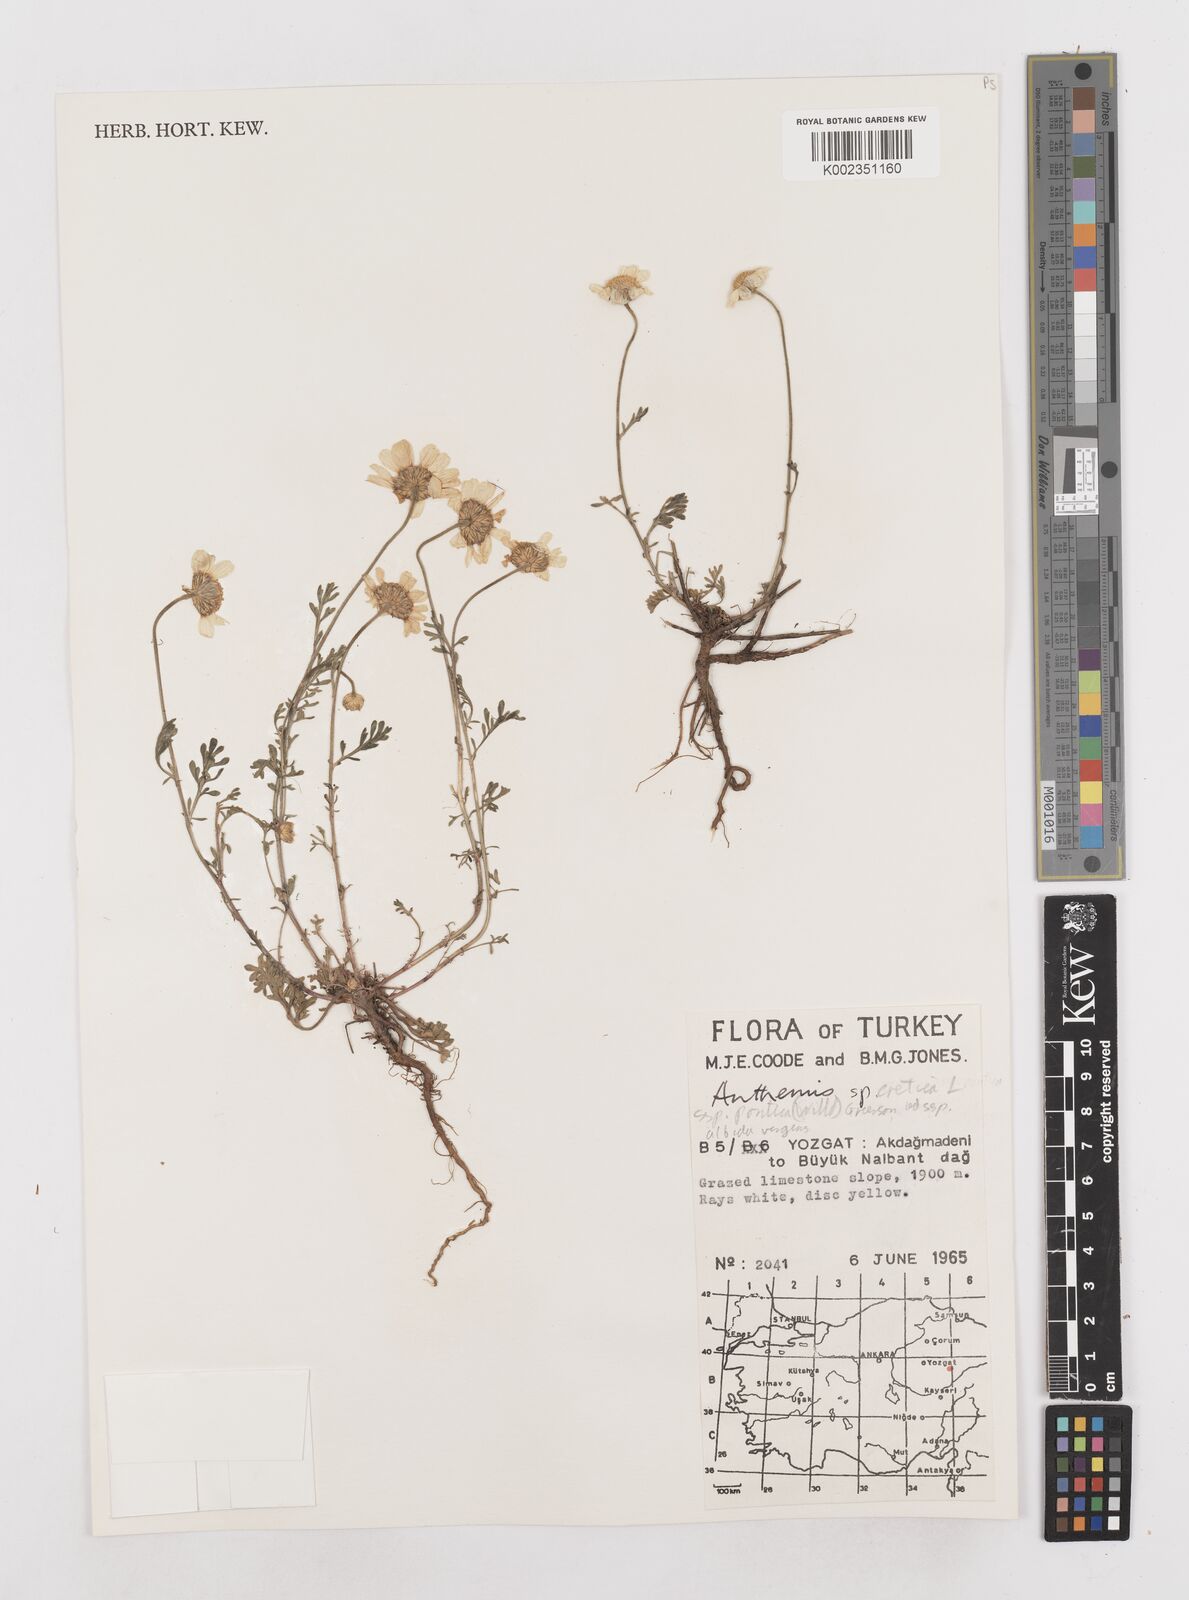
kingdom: Plantae
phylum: Tracheophyta
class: Magnoliopsida
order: Asterales
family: Asteraceae
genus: Anthemis
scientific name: Anthemis cretica
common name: Mountain dog-daisy
